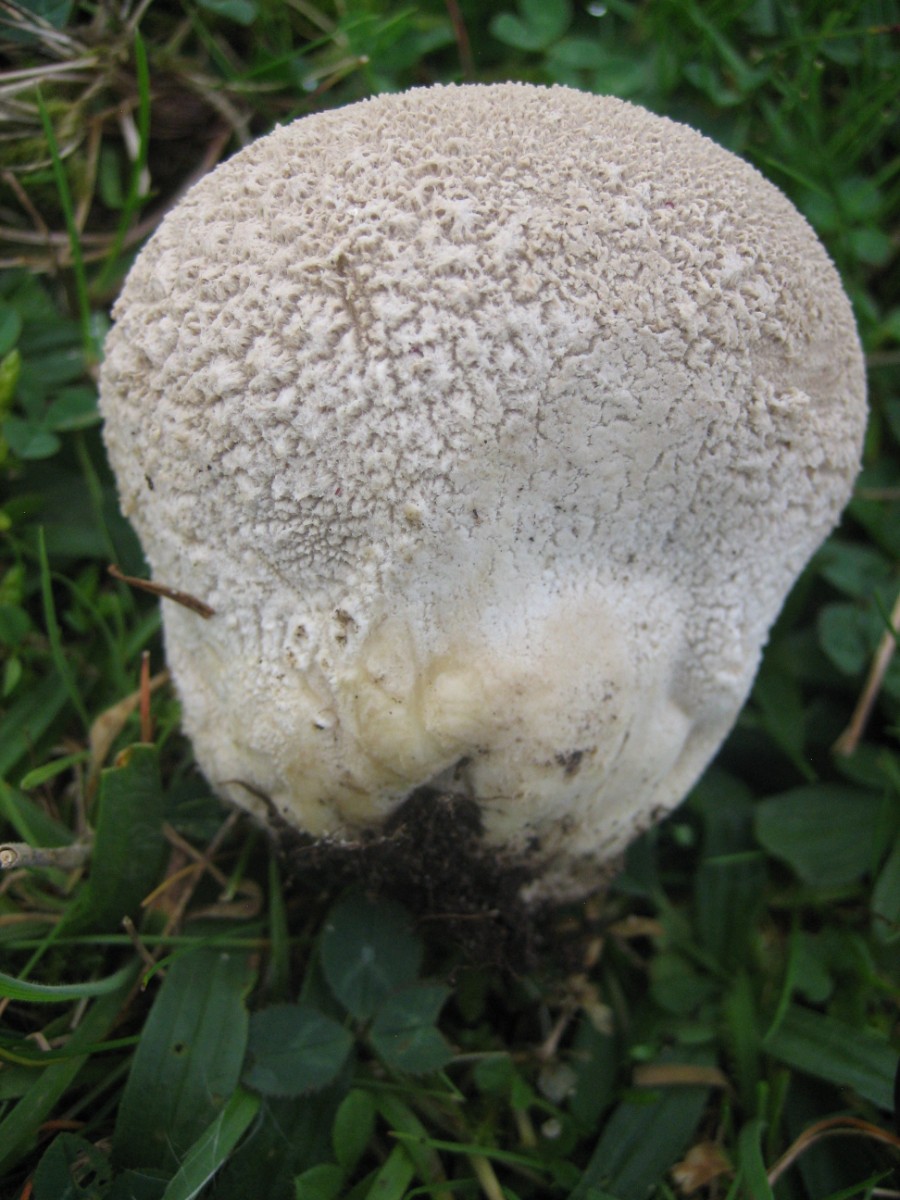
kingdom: Fungi
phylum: Basidiomycota
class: Agaricomycetes
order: Agaricales
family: Lycoperdaceae
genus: Bovistella
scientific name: Bovistella utriformis
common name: skællet støvbold
